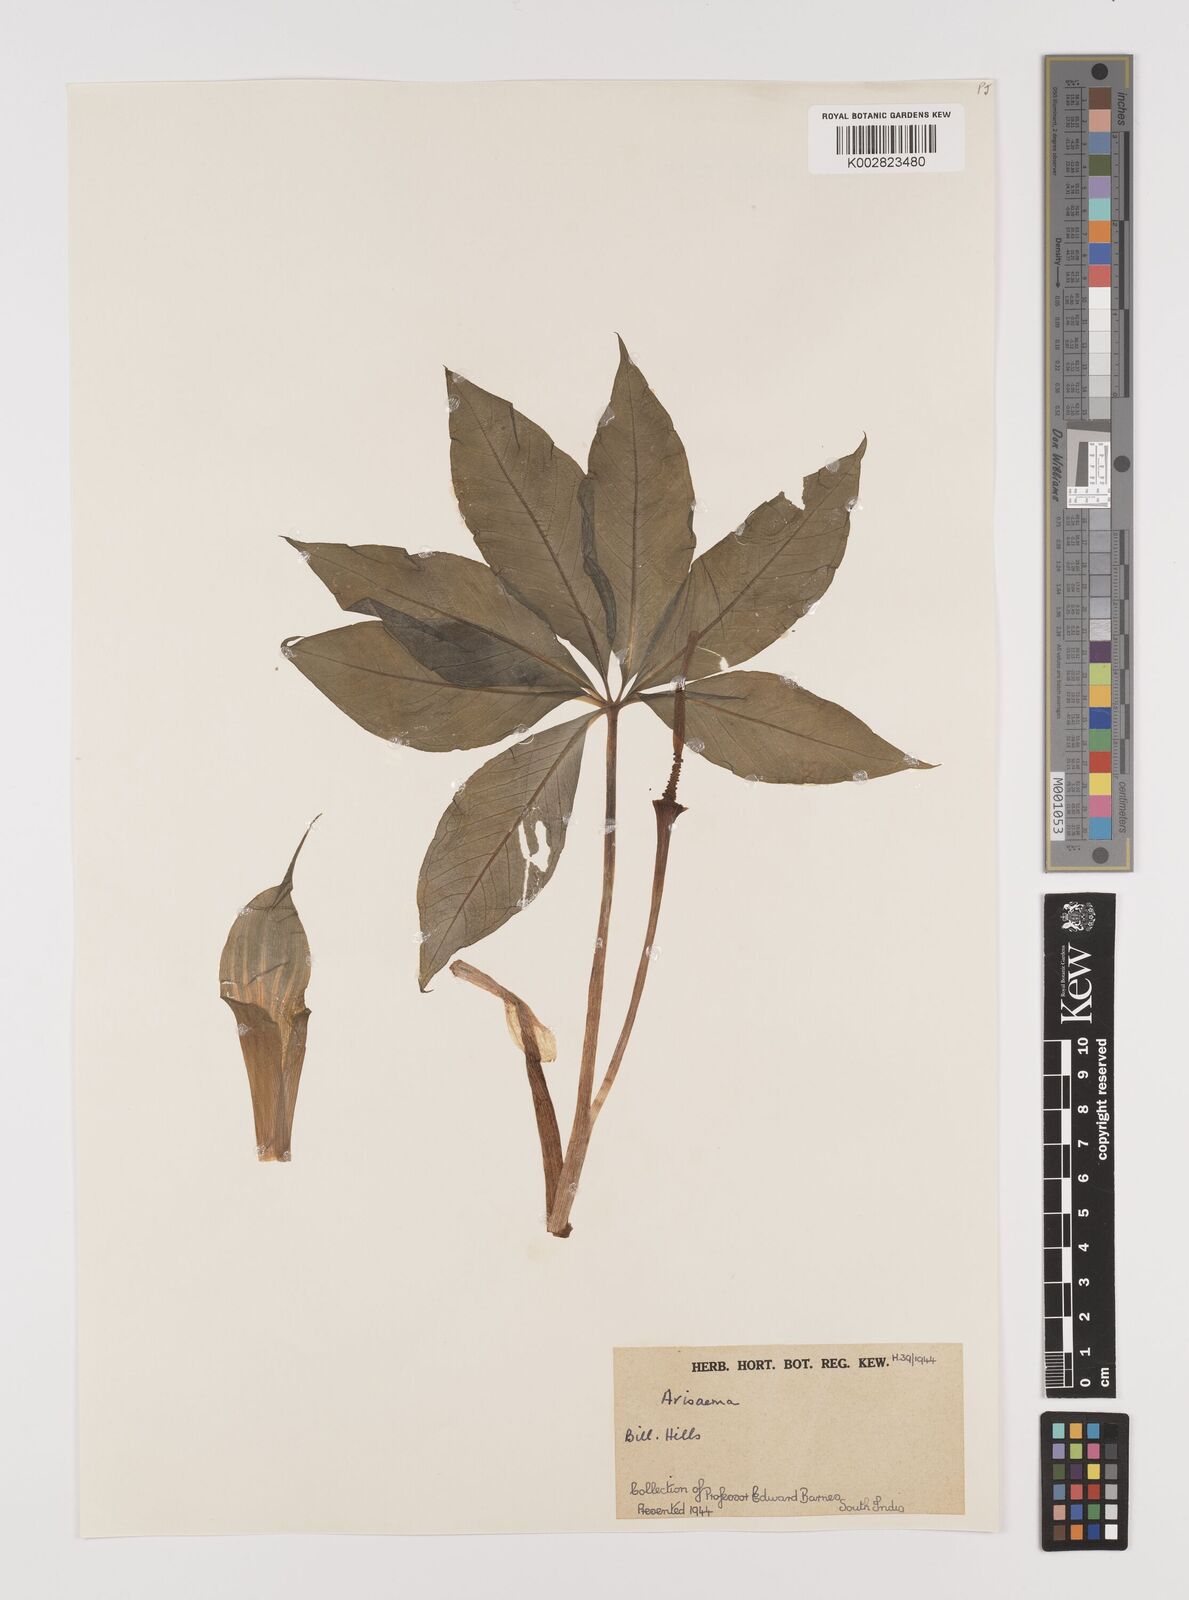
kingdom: Plantae
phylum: Tracheophyta
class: Liliopsida
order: Alismatales
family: Araceae
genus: Arisaema
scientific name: Arisaema
